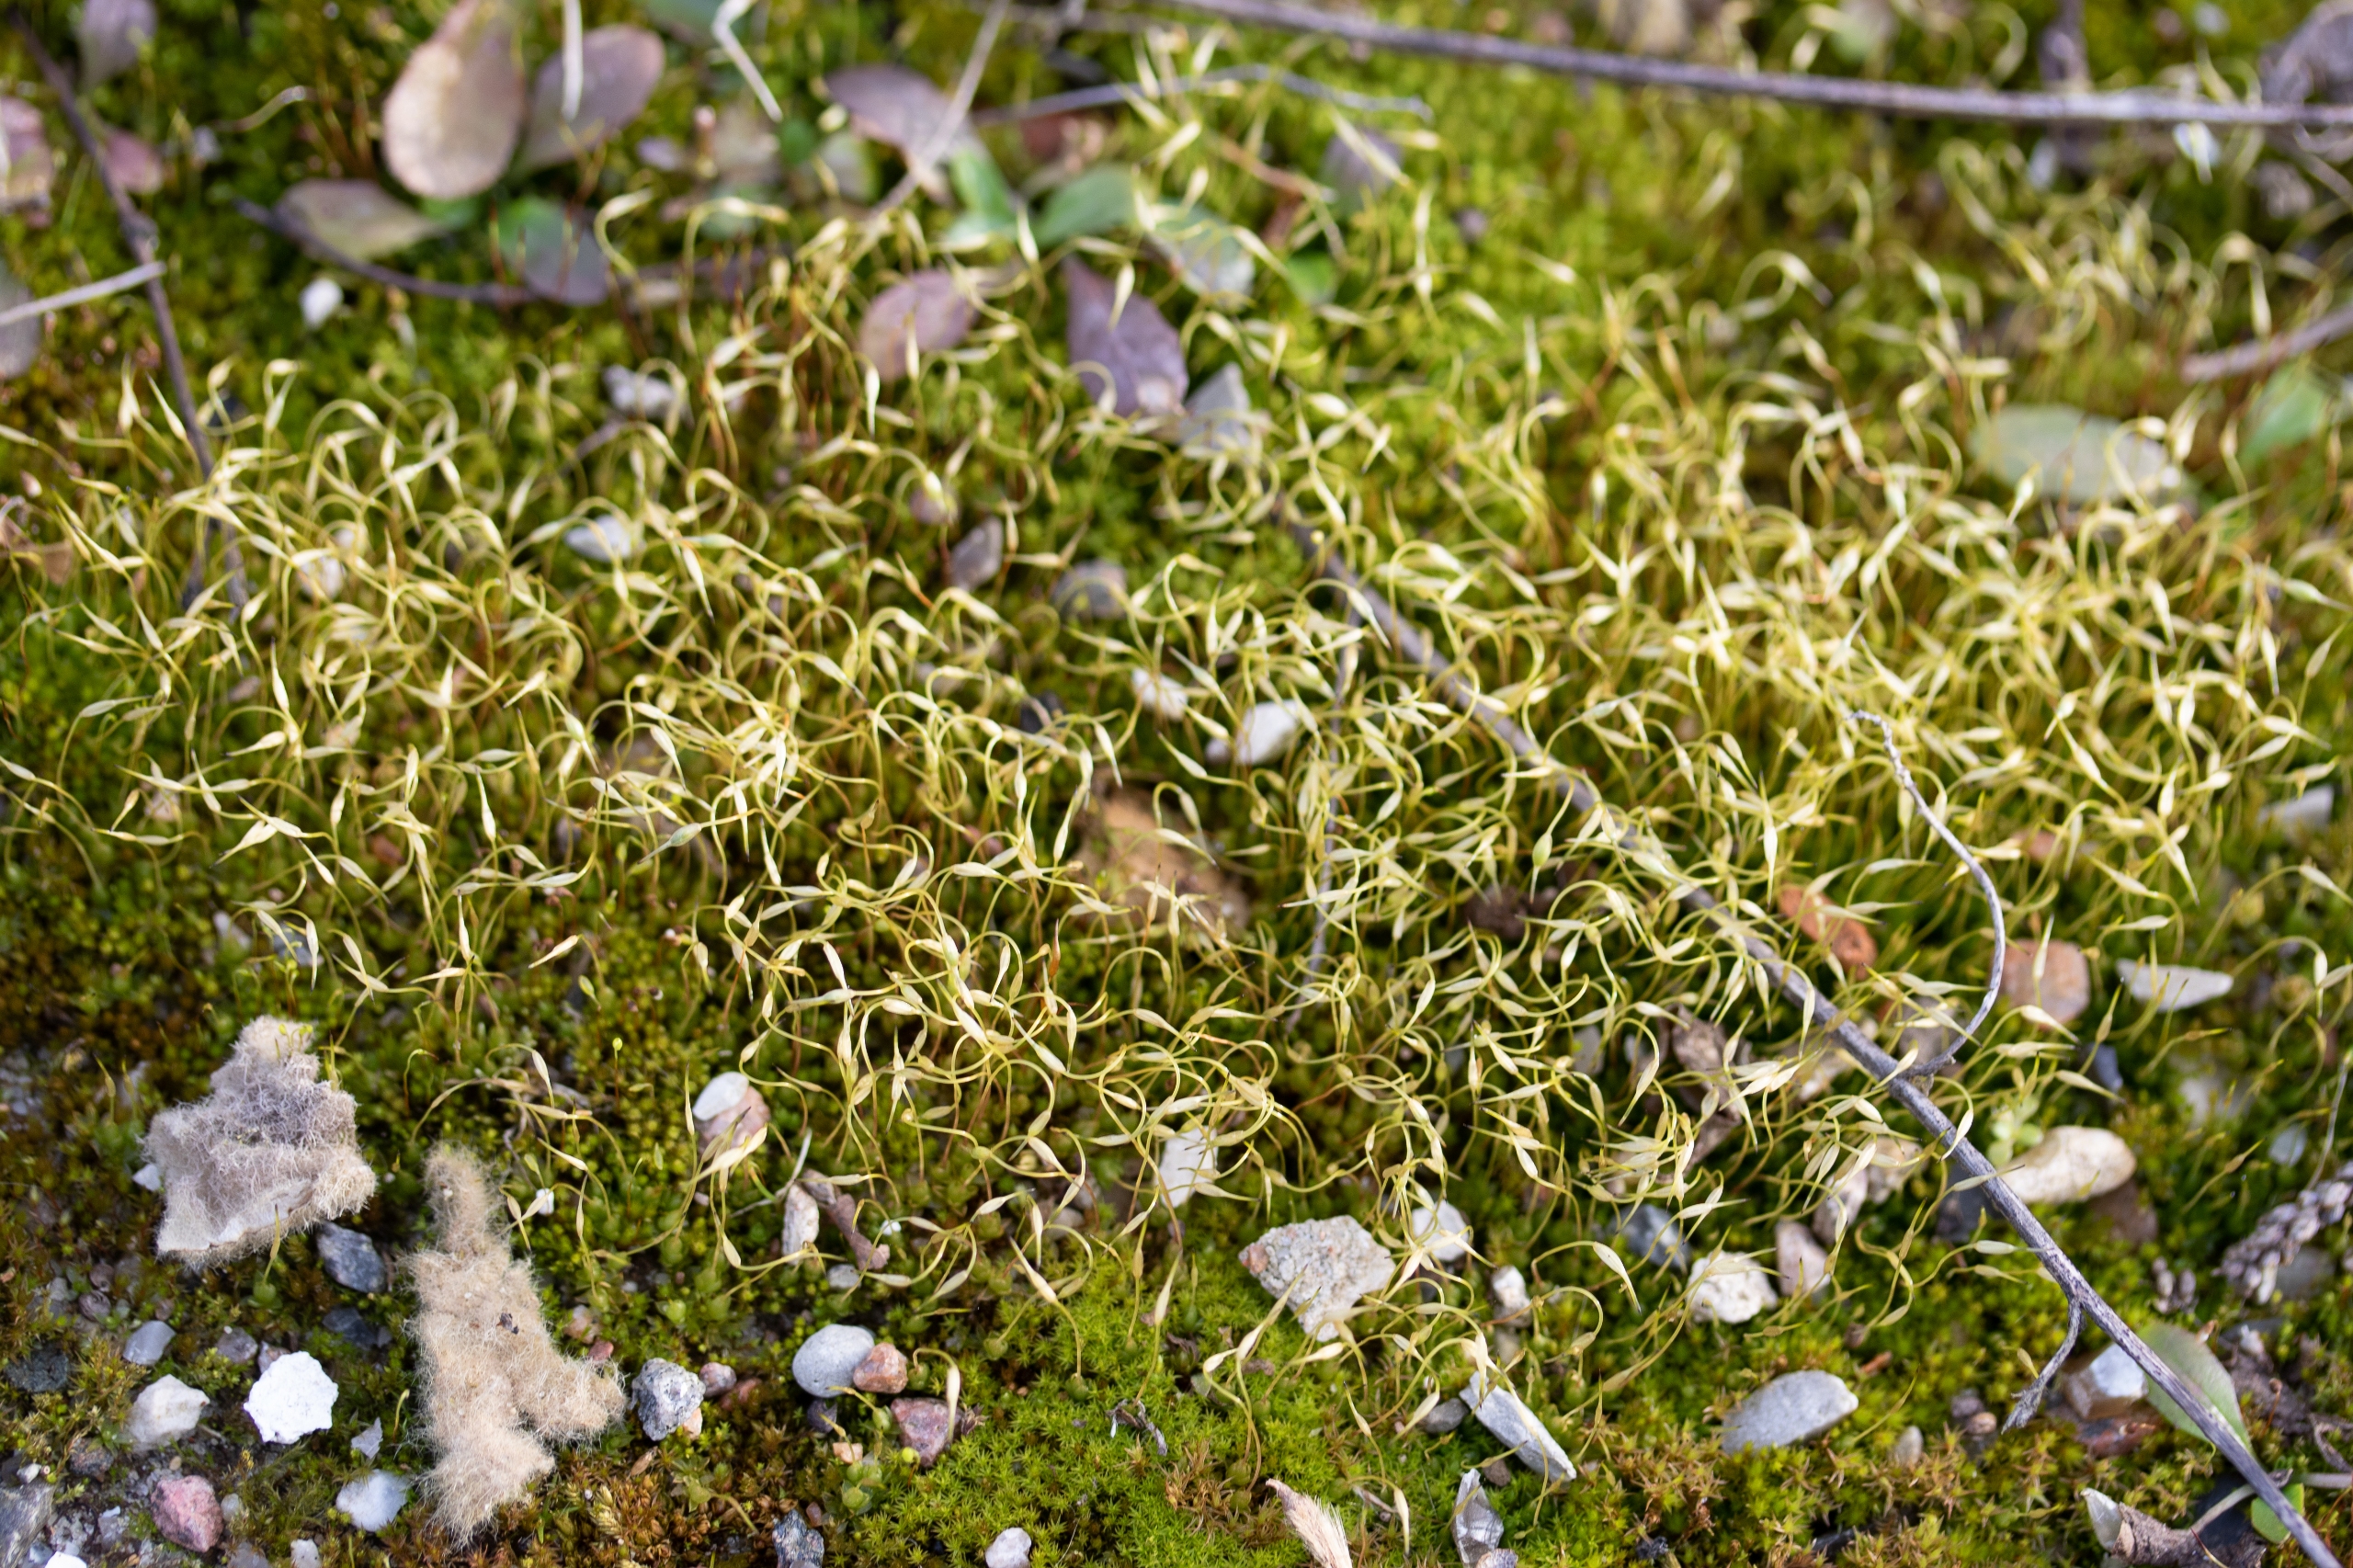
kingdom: Plantae
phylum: Bryophyta
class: Bryopsida
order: Funariales
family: Funariaceae
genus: Funaria
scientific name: Funaria hygrometrica
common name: Almindelig snobørste
